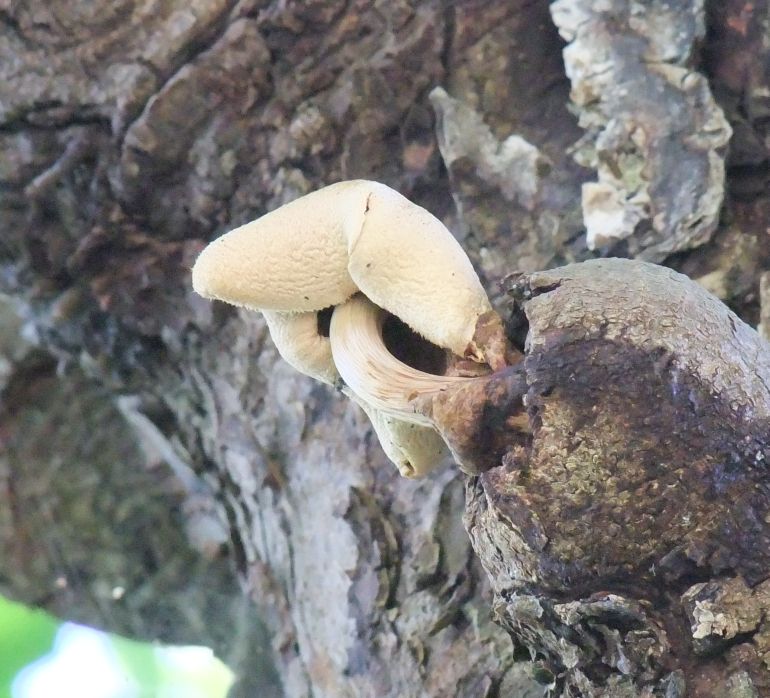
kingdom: Fungi
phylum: Basidiomycota
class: Agaricomycetes
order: Agaricales
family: Pluteaceae
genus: Volvariella
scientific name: Volvariella bombycina
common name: silkehåret posesvamp
